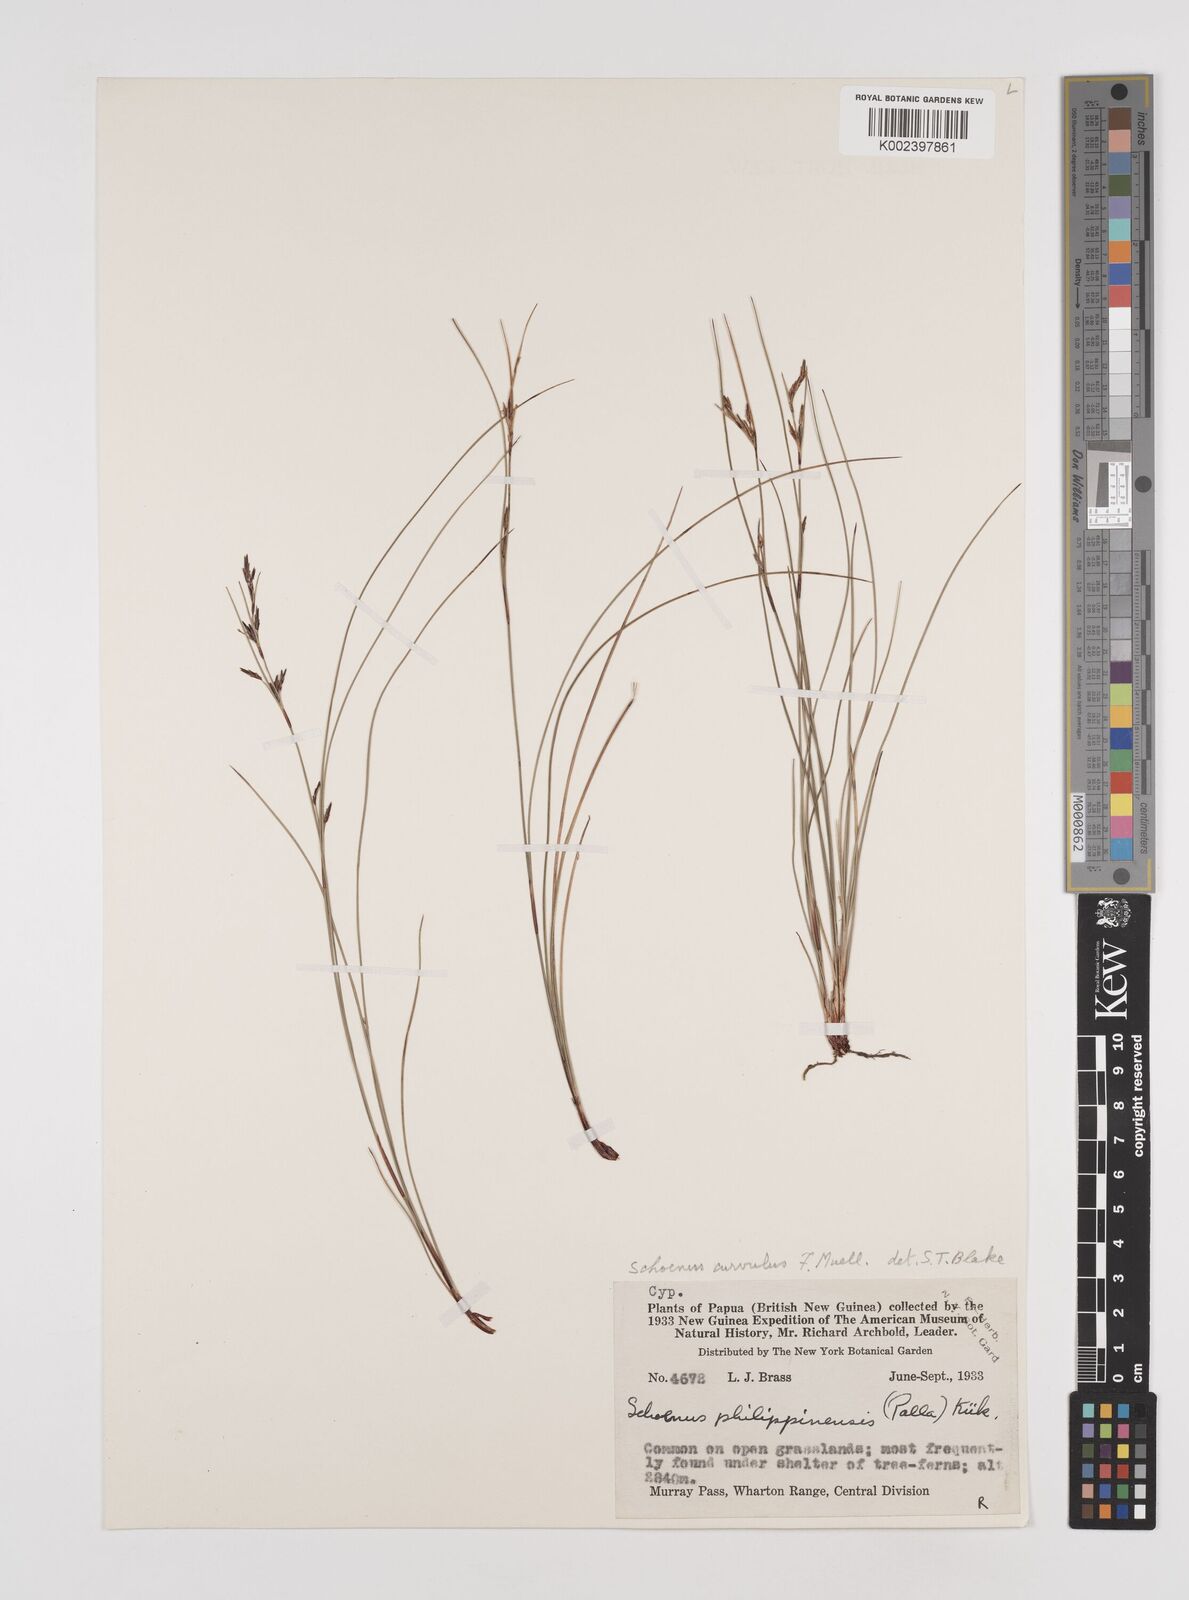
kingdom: Plantae
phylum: Tracheophyta
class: Liliopsida
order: Poales
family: Cyperaceae
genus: Schoenus
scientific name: Schoenus curvulus
